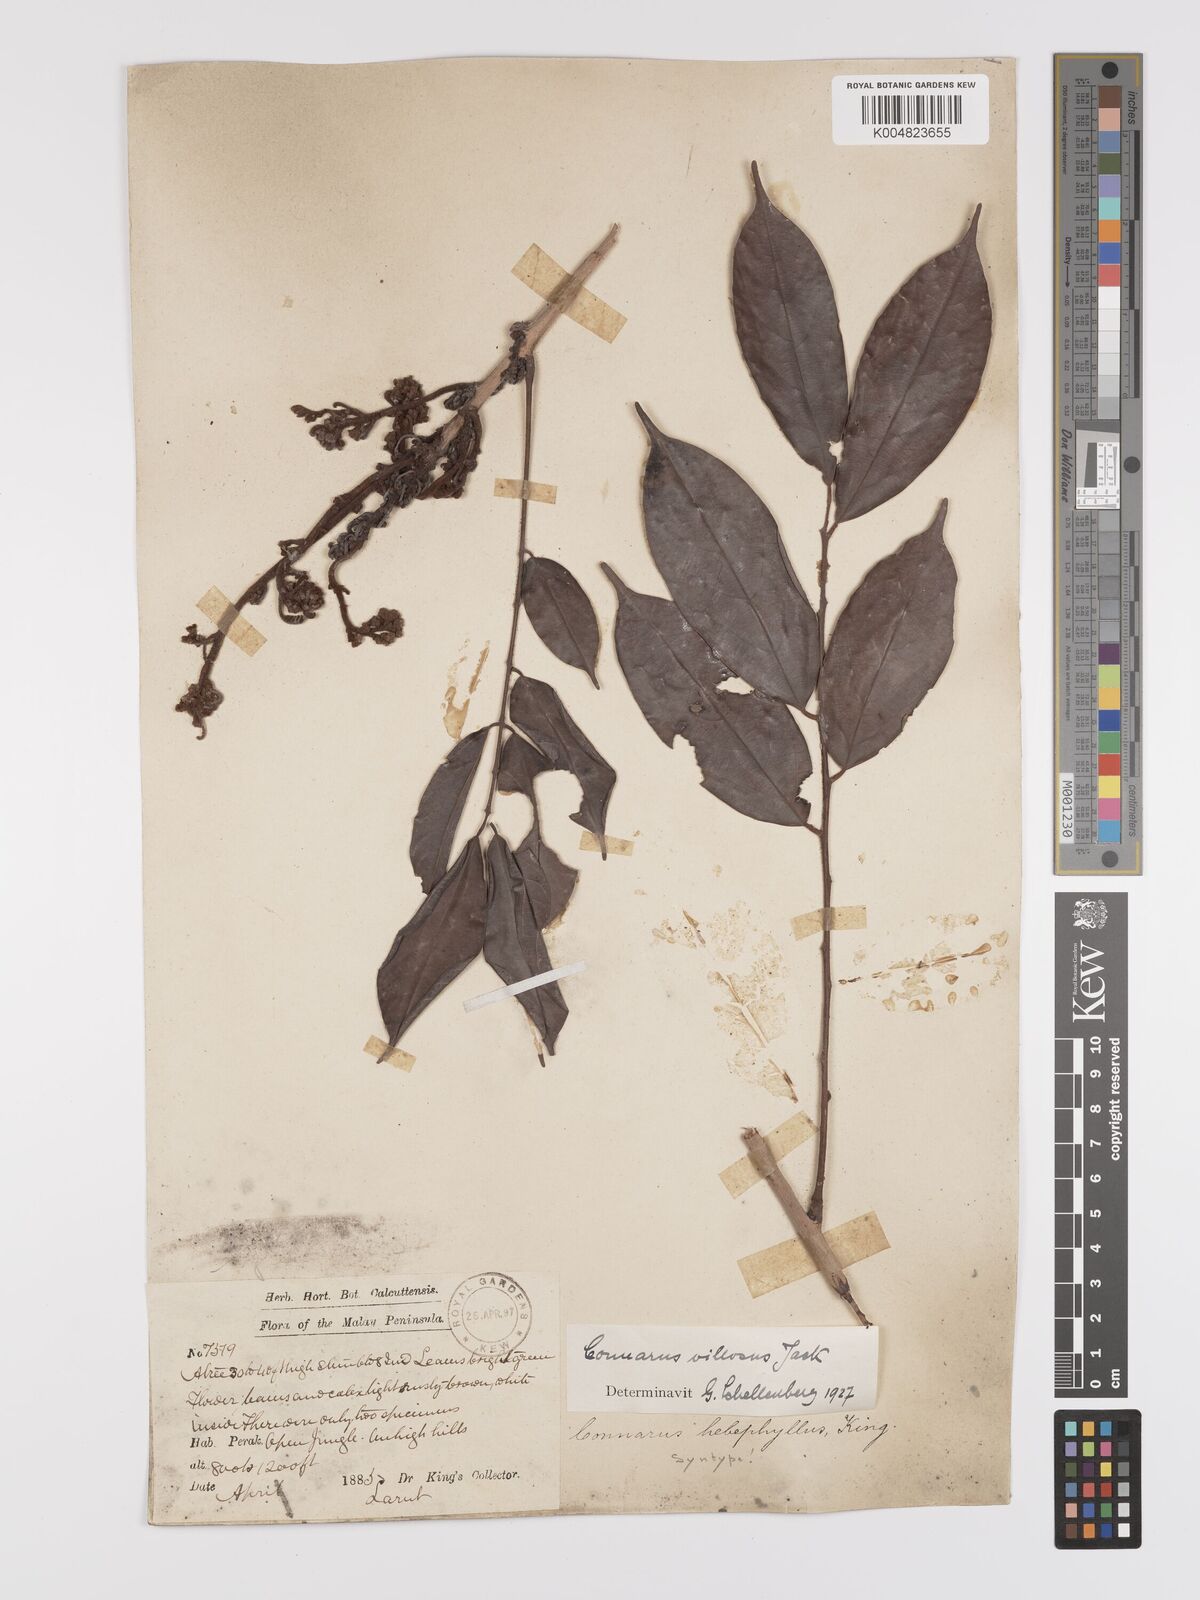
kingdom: Plantae
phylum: Tracheophyta
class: Magnoliopsida
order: Oxalidales
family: Connaraceae
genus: Connarus
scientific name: Connarus
